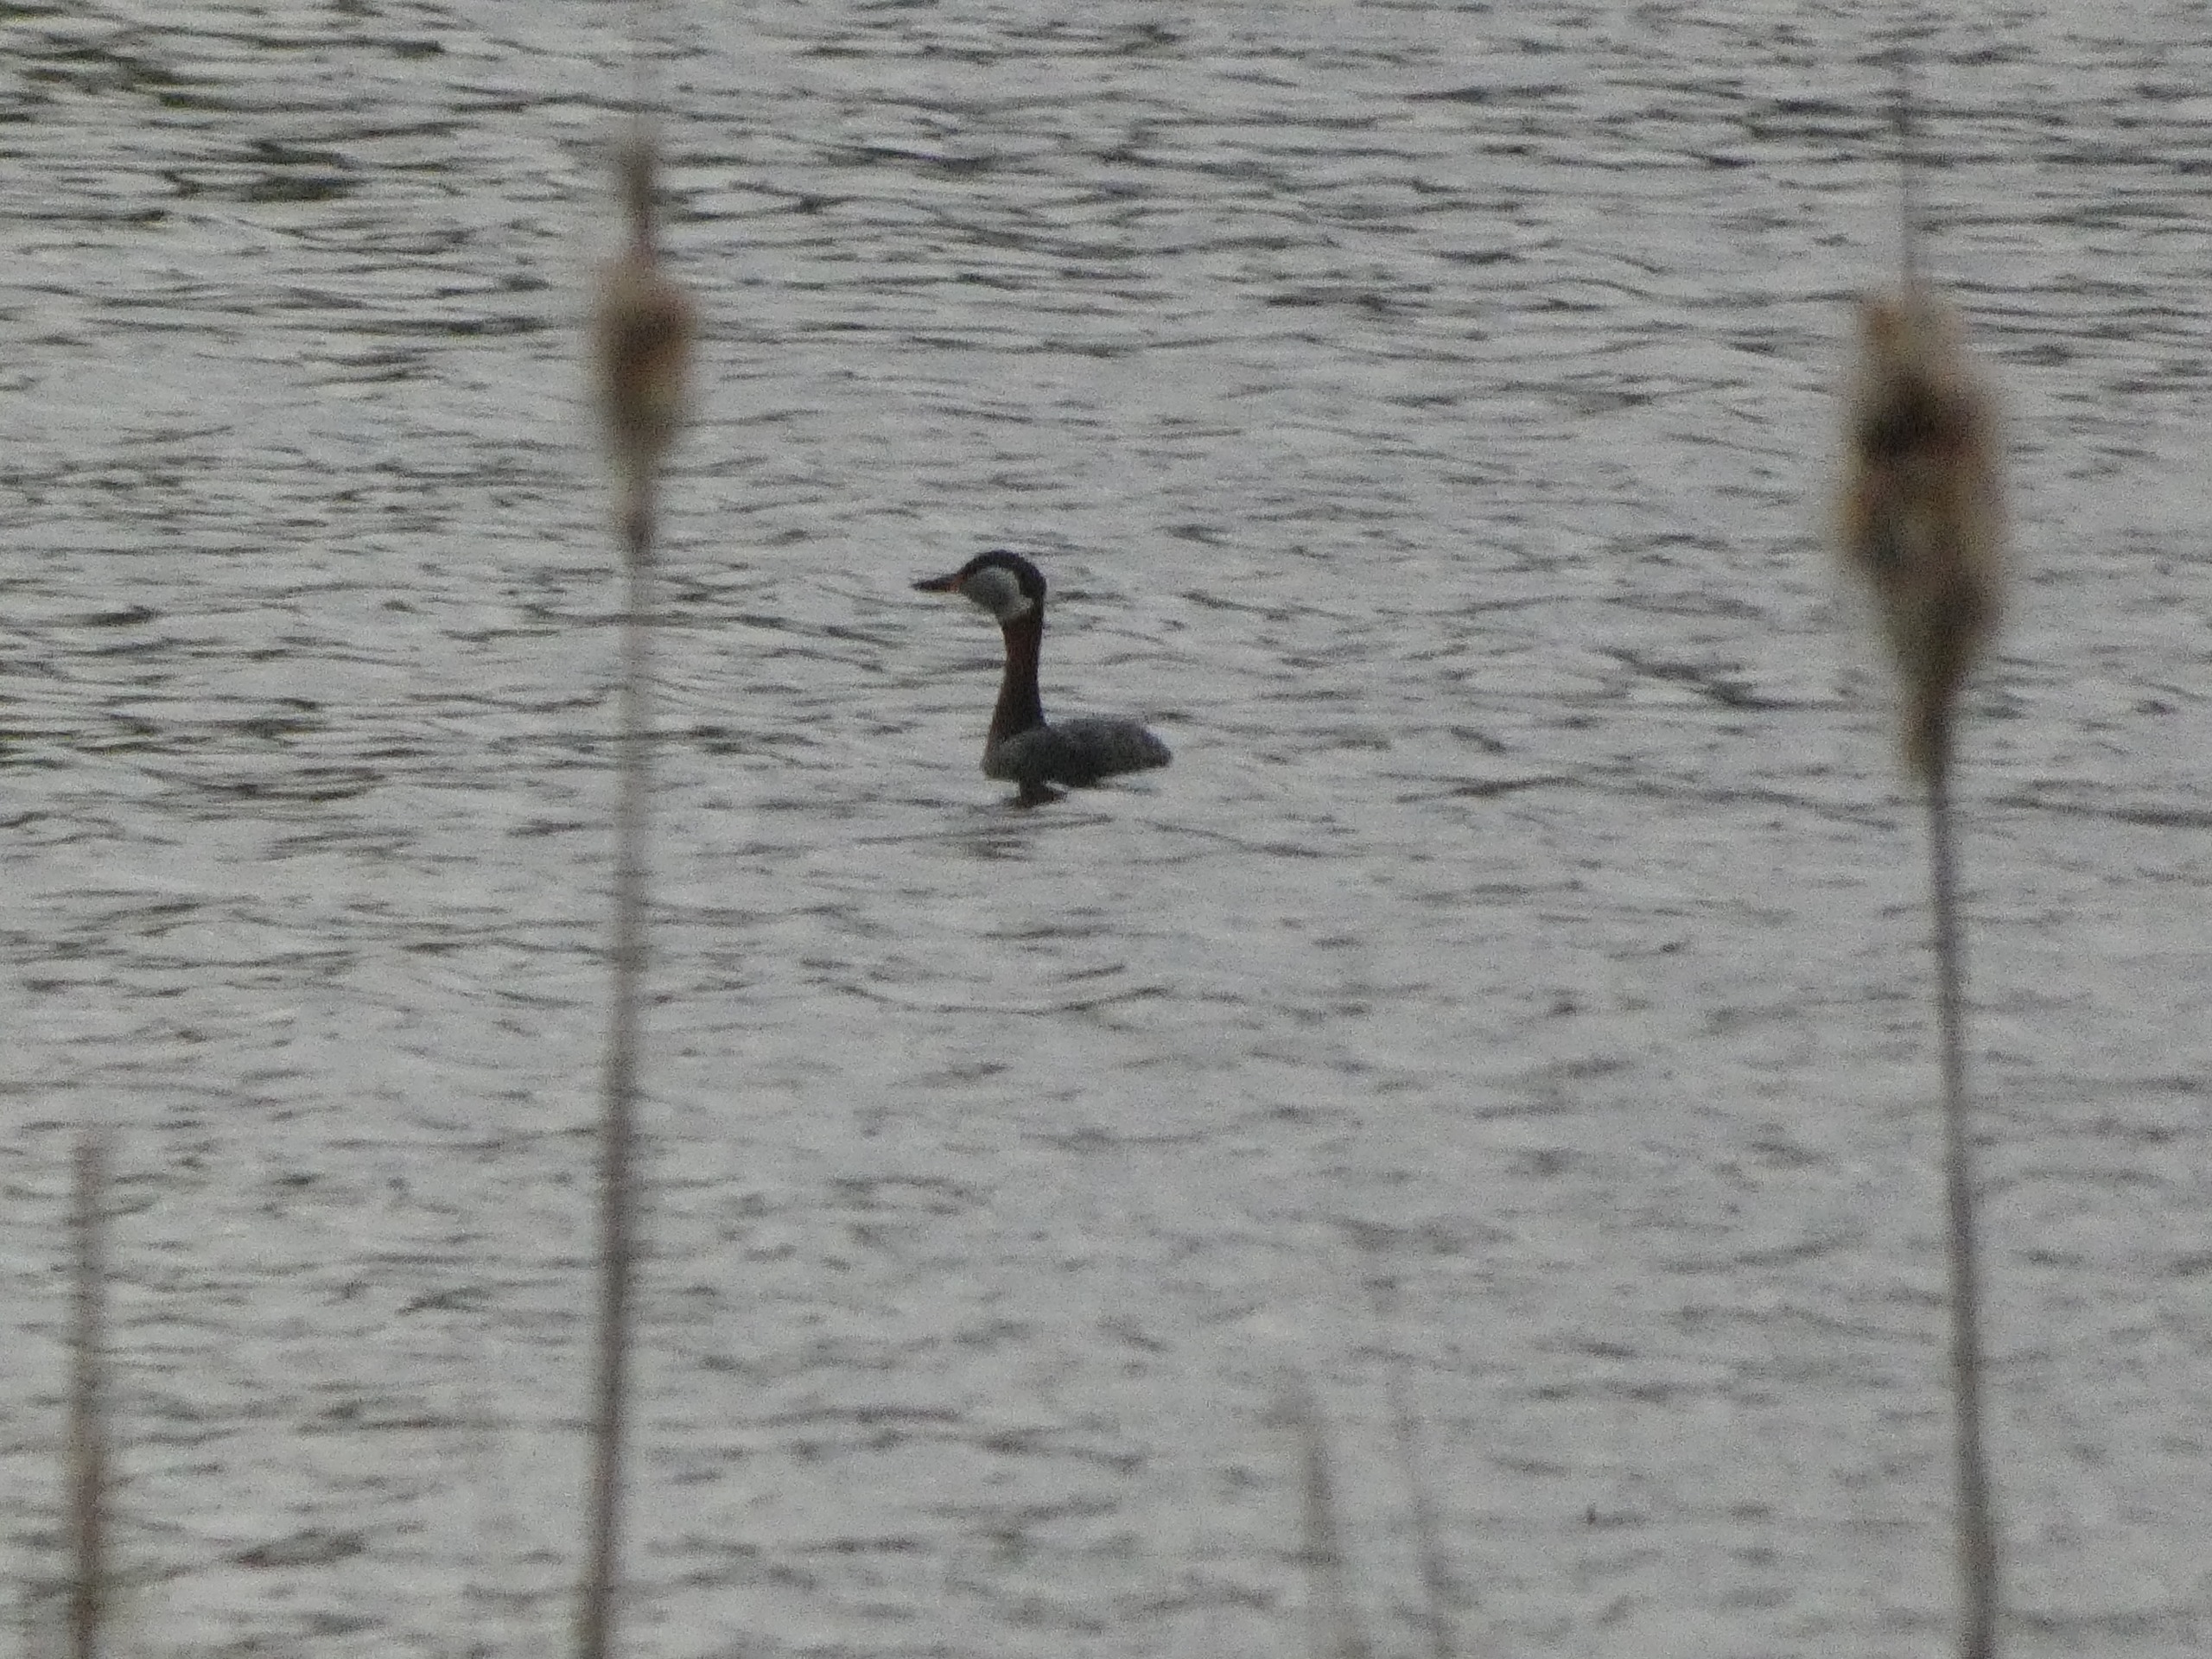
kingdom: Animalia
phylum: Chordata
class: Aves
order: Podicipediformes
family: Podicipedidae
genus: Podiceps
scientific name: Podiceps grisegena
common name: Gråstrubet lappedykker
